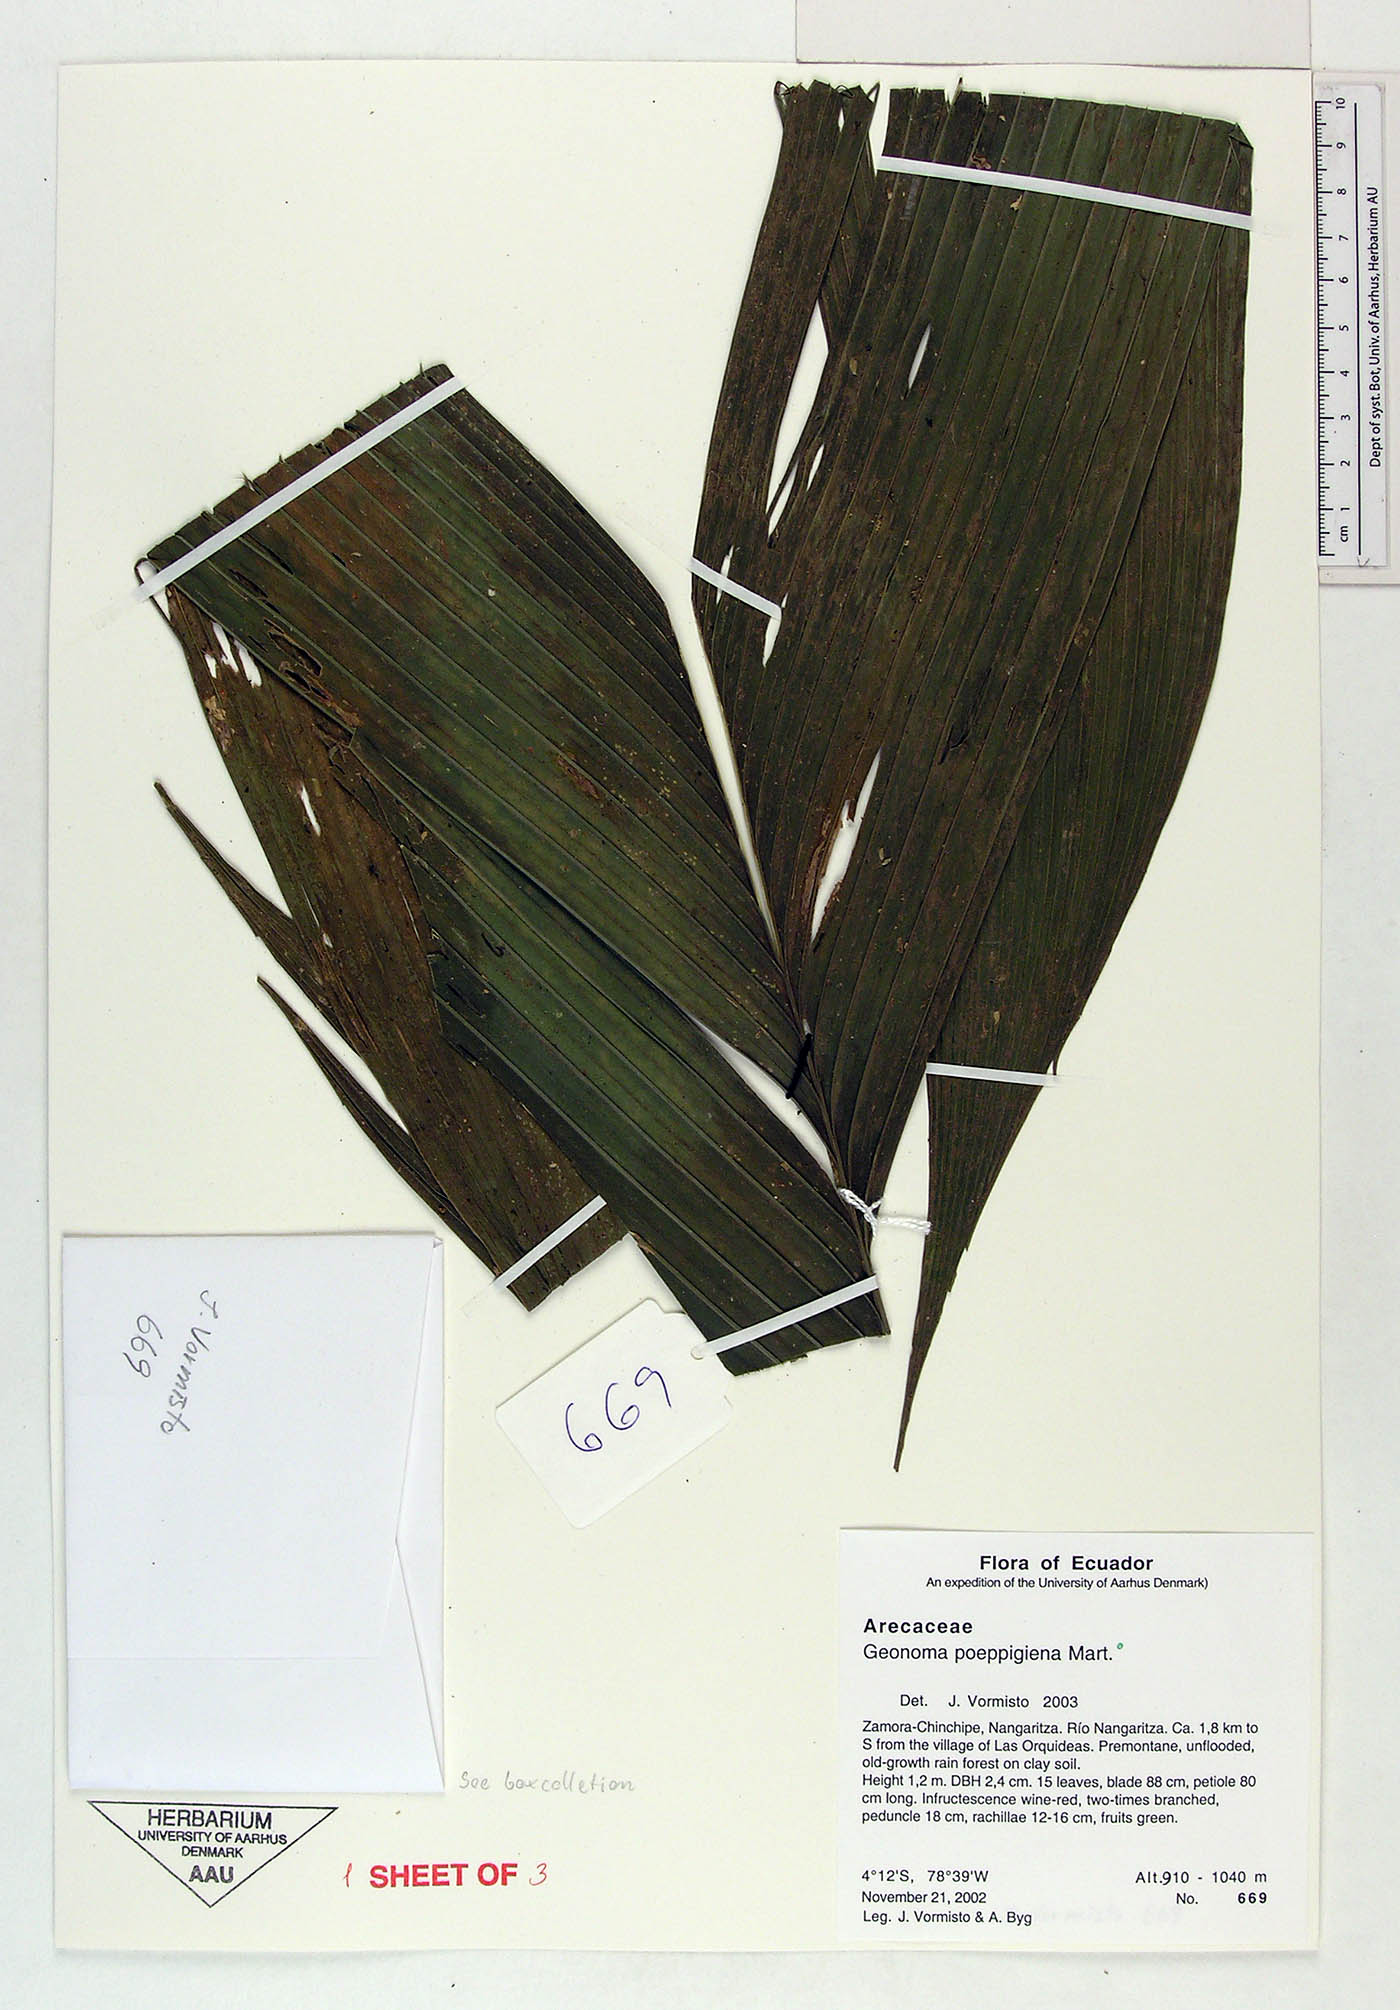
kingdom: Plantae
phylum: Tracheophyta
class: Liliopsida
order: Arecales
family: Arecaceae
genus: Geonoma
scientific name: Geonoma poeppigiana
